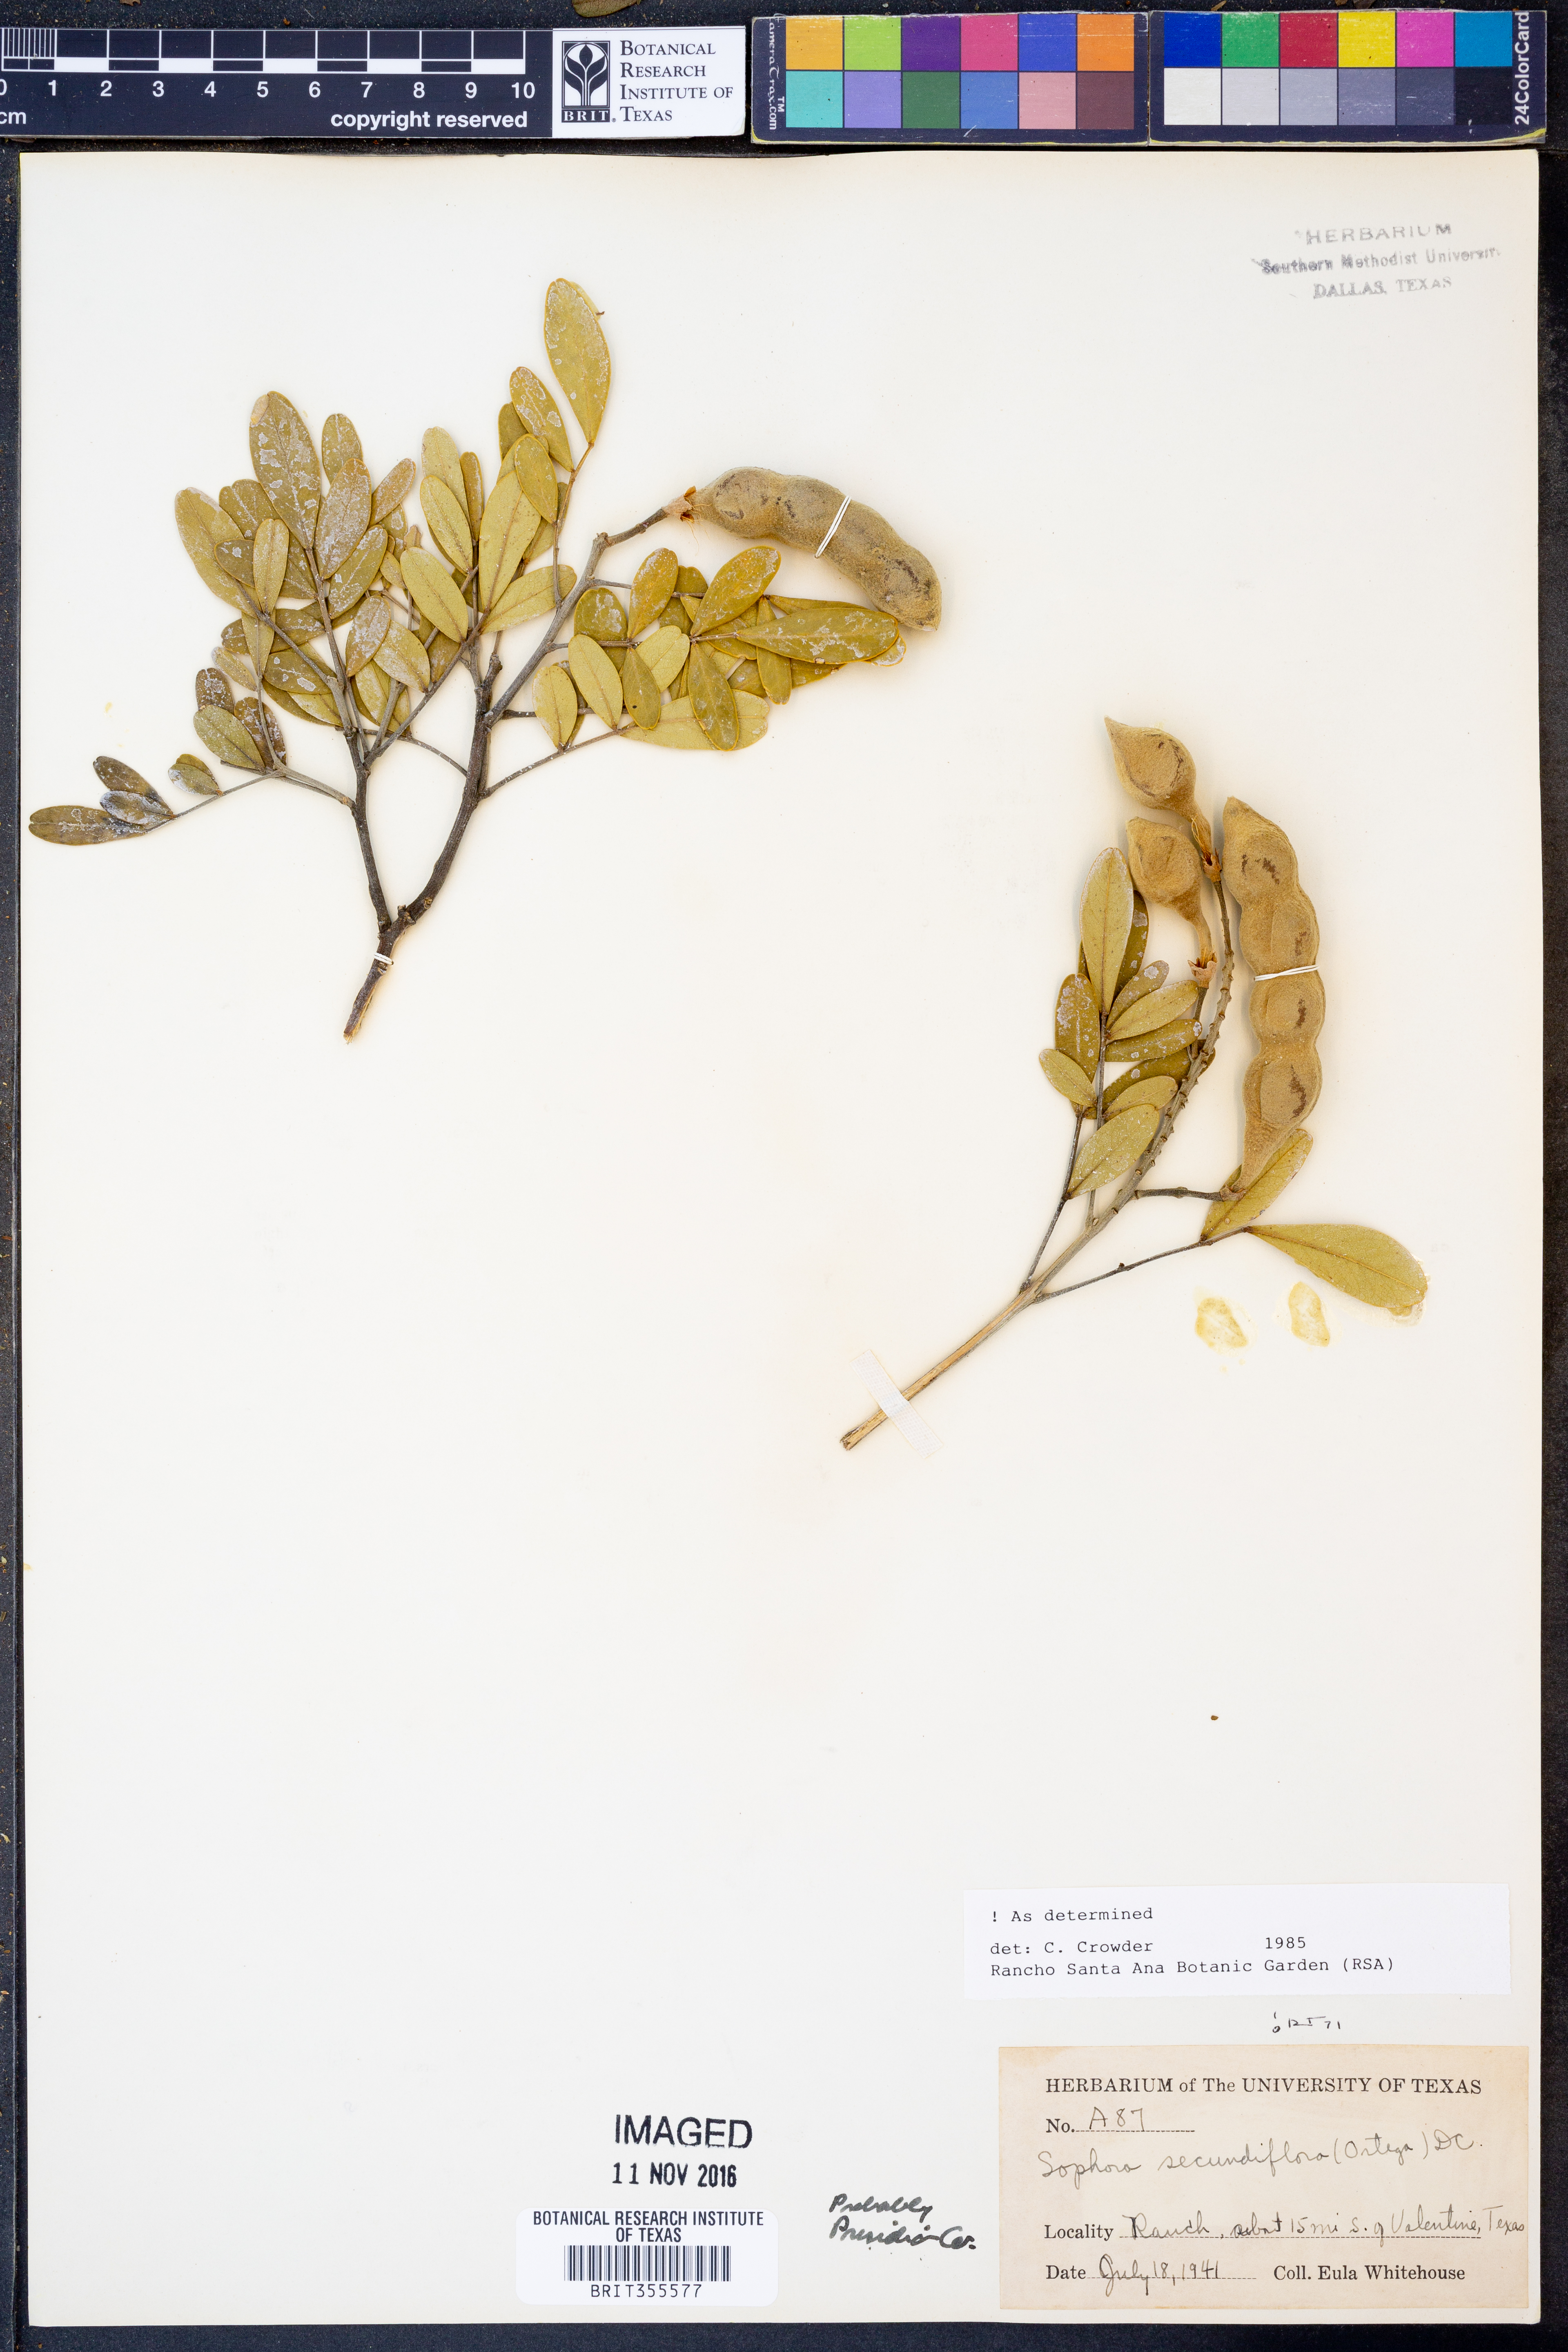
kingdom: Plantae
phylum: Tracheophyta
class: Magnoliopsida
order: Fabales
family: Fabaceae
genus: Dermatophyllum
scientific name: Dermatophyllum secundiflorum
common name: Texas-mountain-laurel
